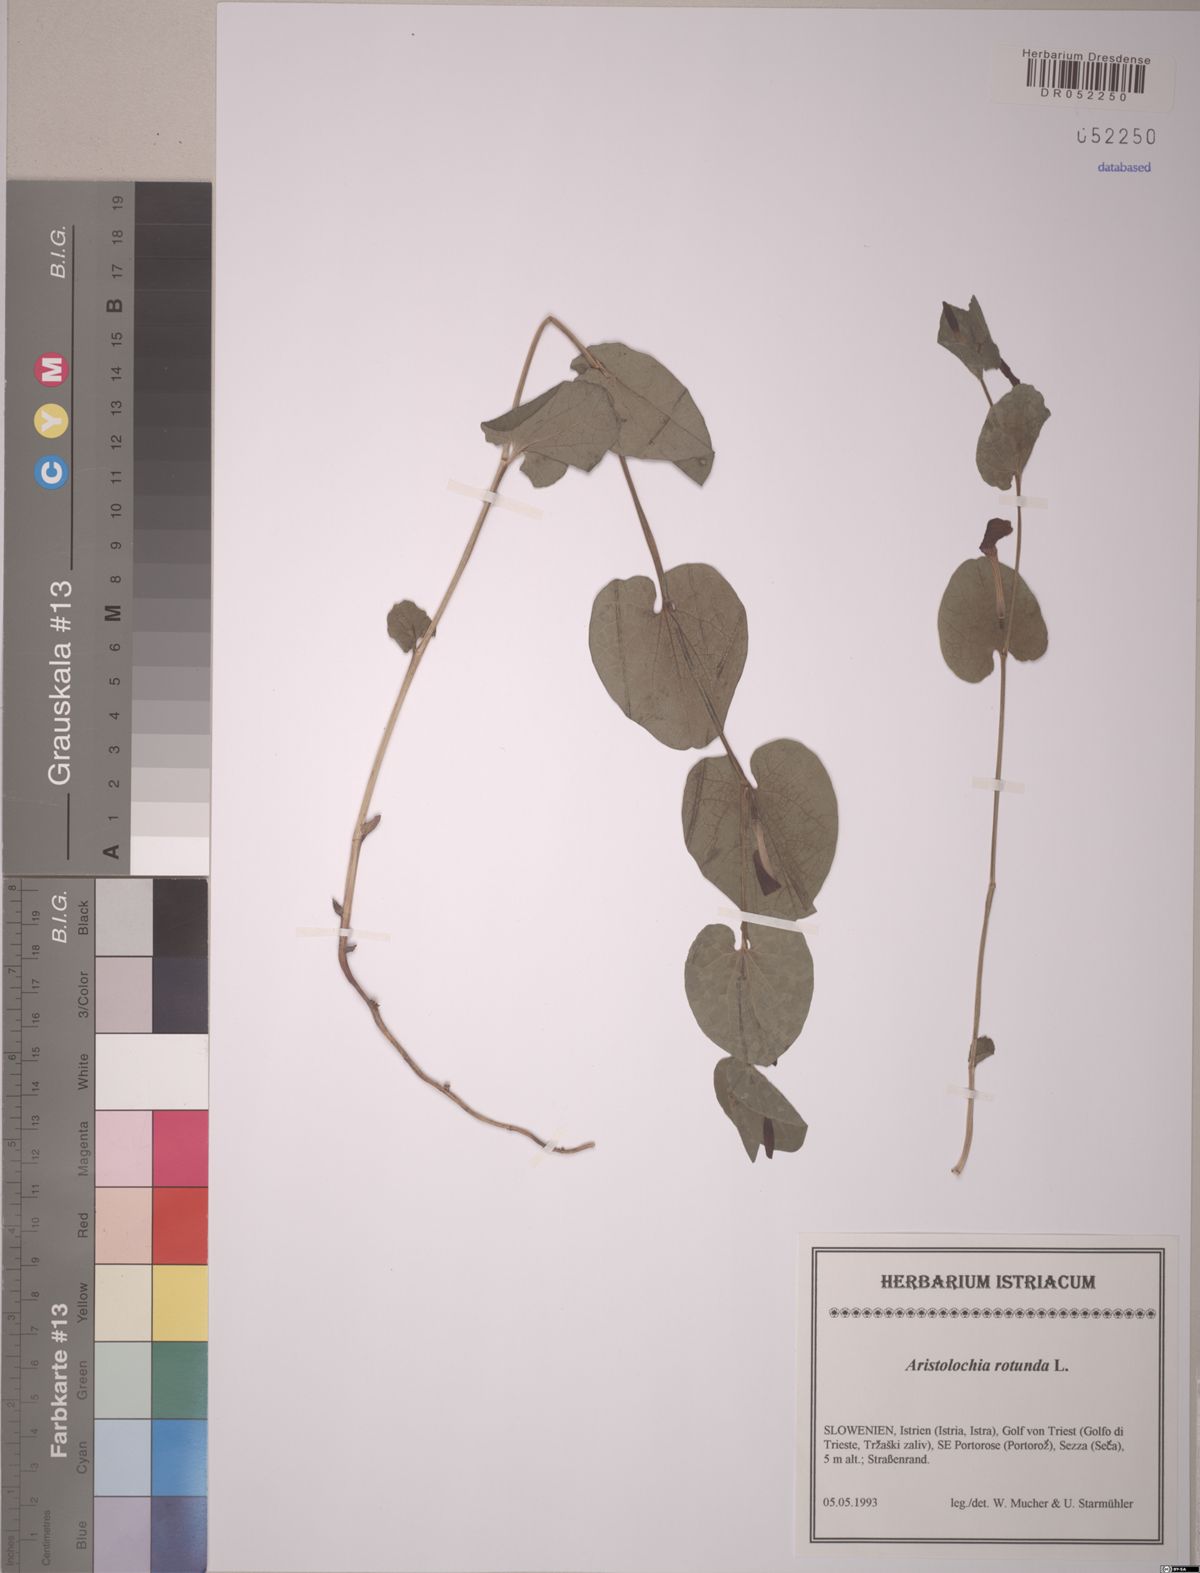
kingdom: Plantae
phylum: Tracheophyta
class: Magnoliopsida
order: Piperales
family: Aristolochiaceae
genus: Aristolochia
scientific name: Aristolochia rotunda
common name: Smearwort
